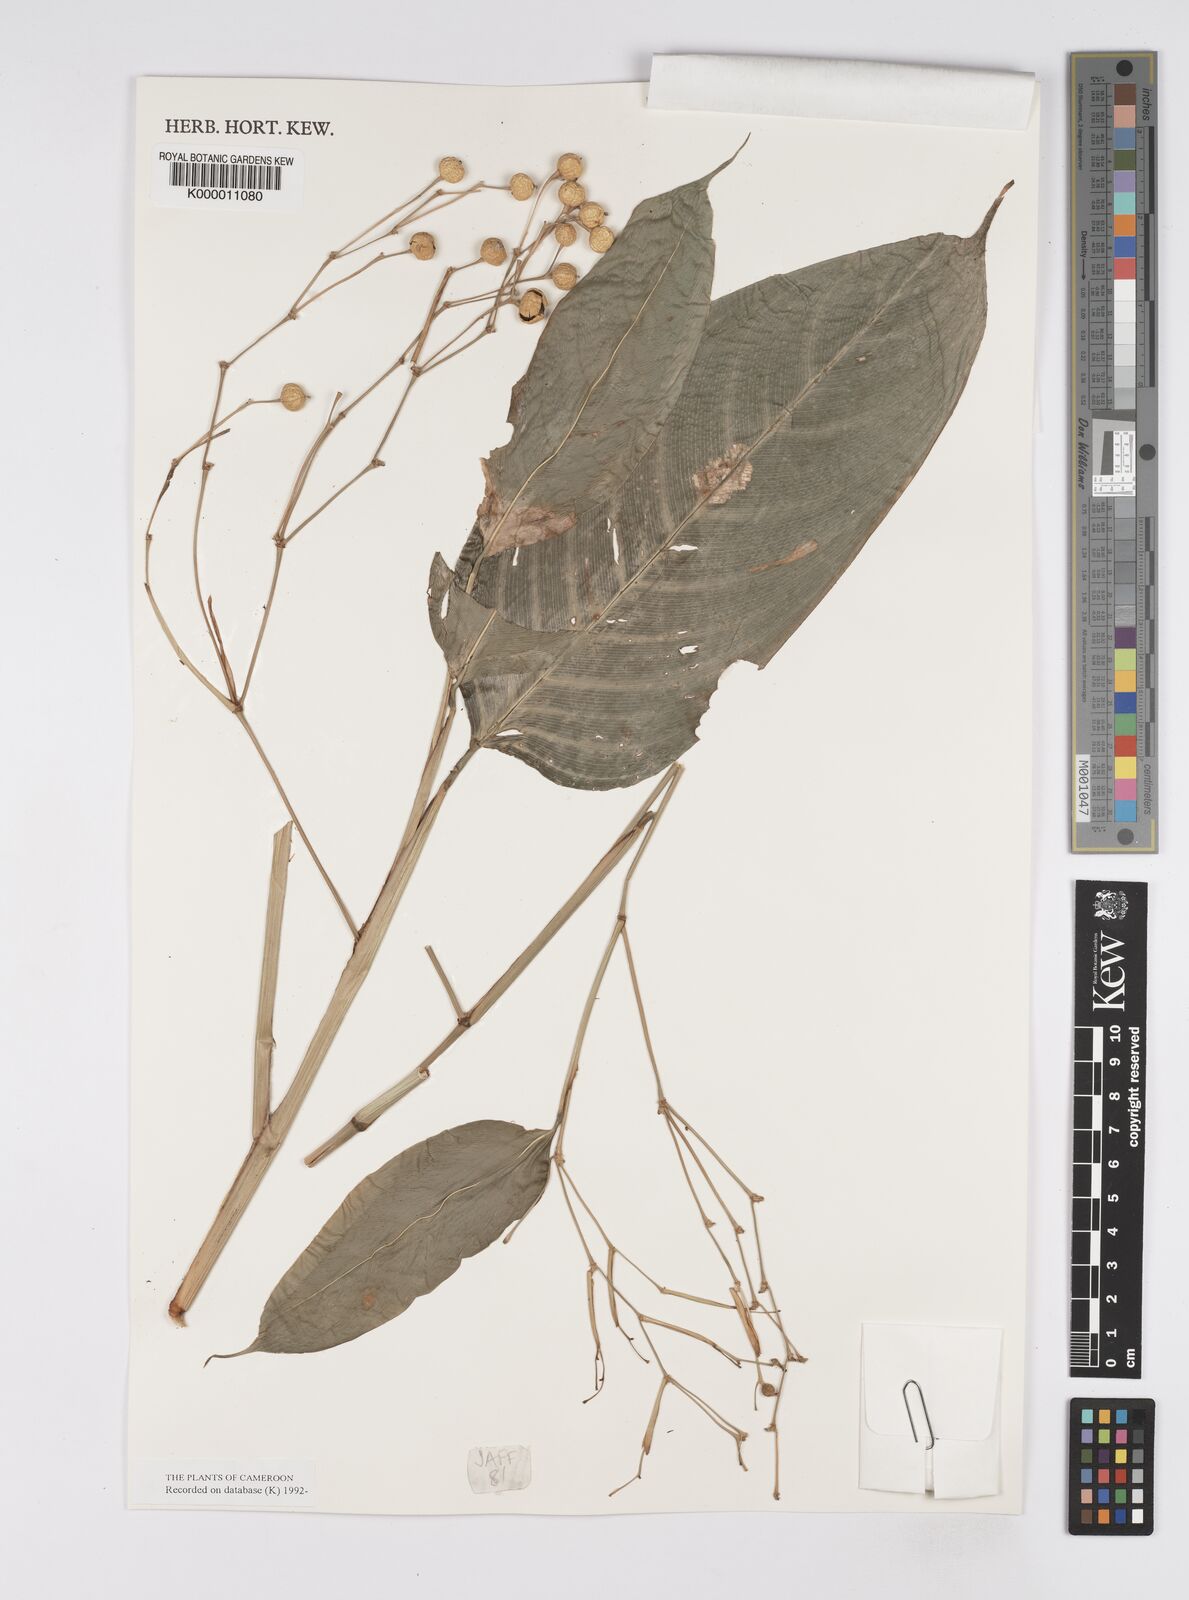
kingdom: Plantae
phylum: Tracheophyta
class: Liliopsida
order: Zingiberales
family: Marantaceae
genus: Marantochloa
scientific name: Marantochloa leucantha
